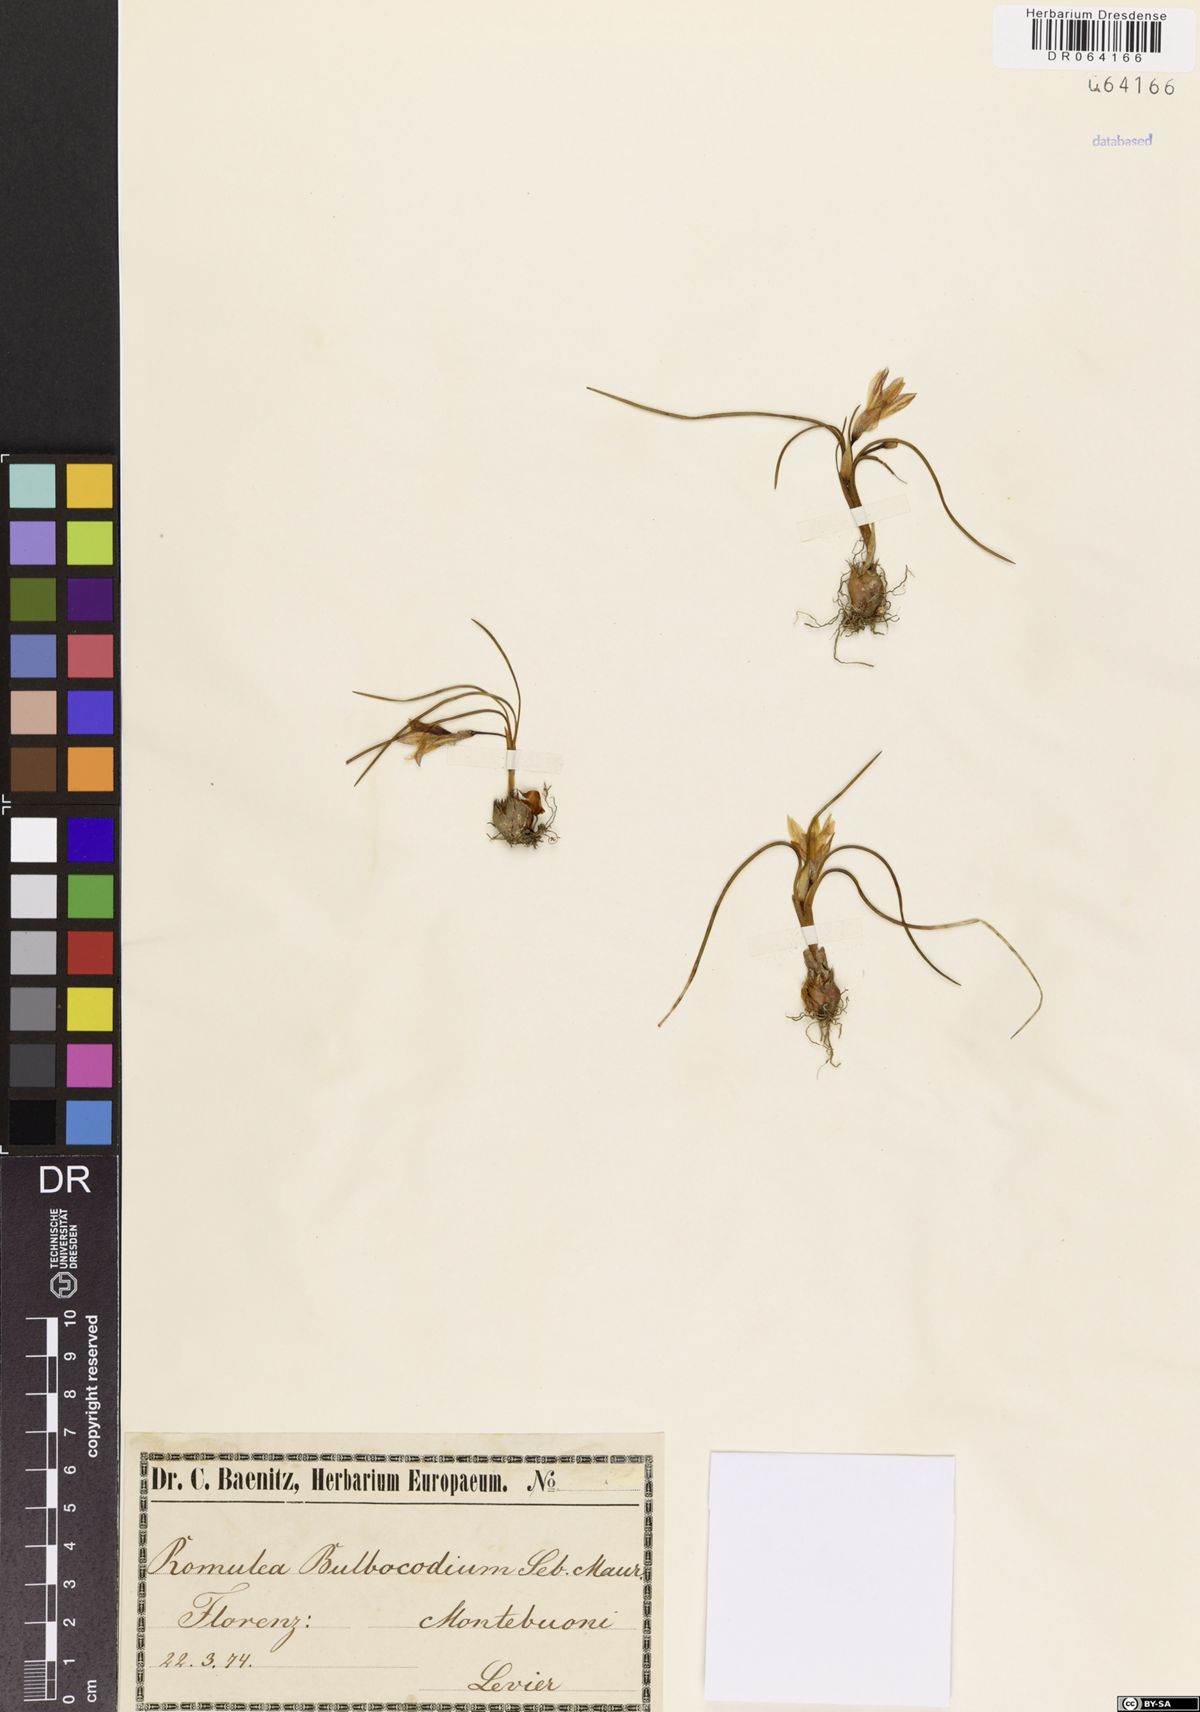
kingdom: Plantae
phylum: Tracheophyta
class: Liliopsida
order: Asparagales
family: Iridaceae
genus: Romulea
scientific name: Romulea bulbocodium
